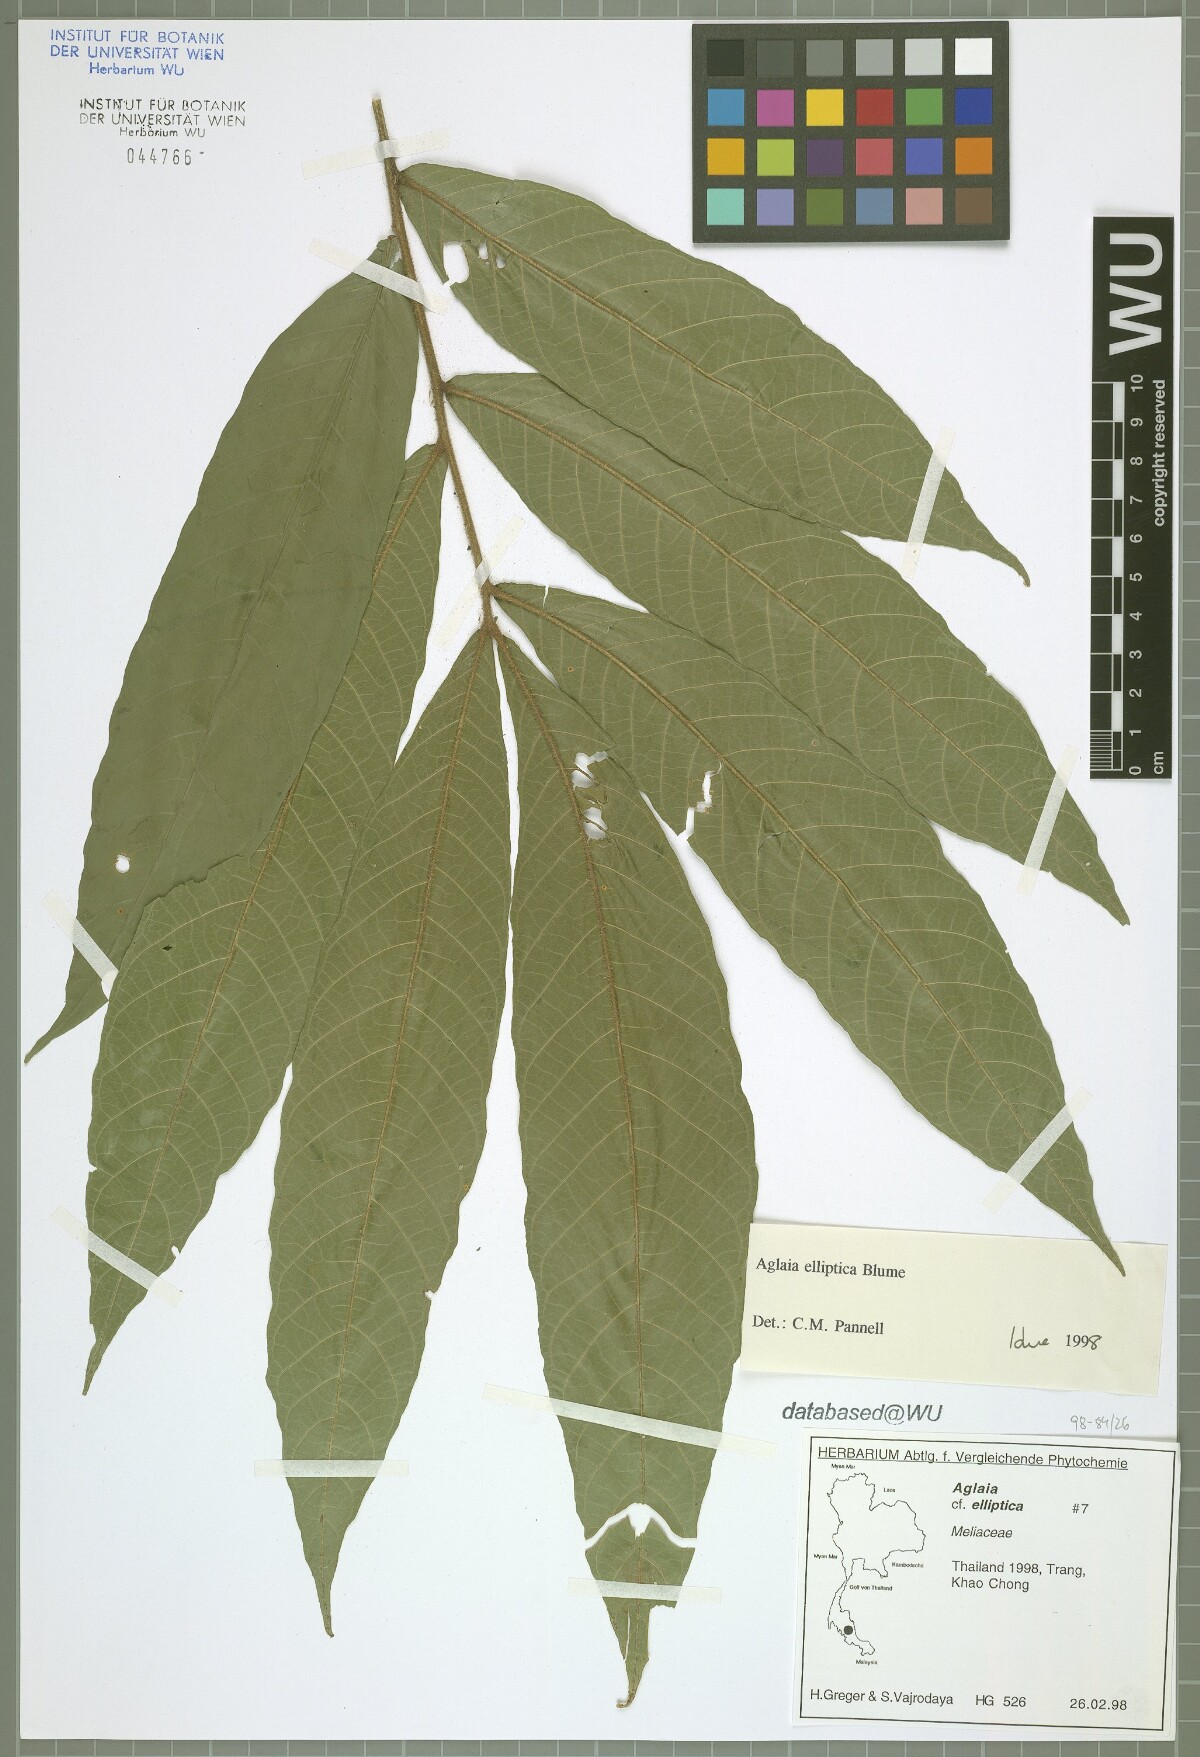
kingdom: Plantae
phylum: Tracheophyta
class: Magnoliopsida
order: Sapindales
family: Meliaceae
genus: Aglaia
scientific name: Aglaia elliptica
